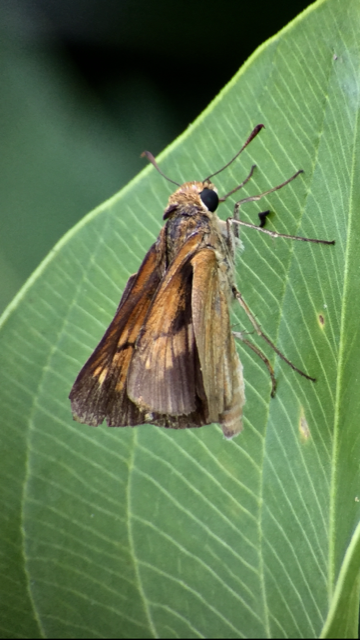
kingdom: Animalia
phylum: Arthropoda
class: Insecta
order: Lepidoptera
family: Hesperiidae
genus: Poanes
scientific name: Poanes viator
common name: Broad-winged Skipper
